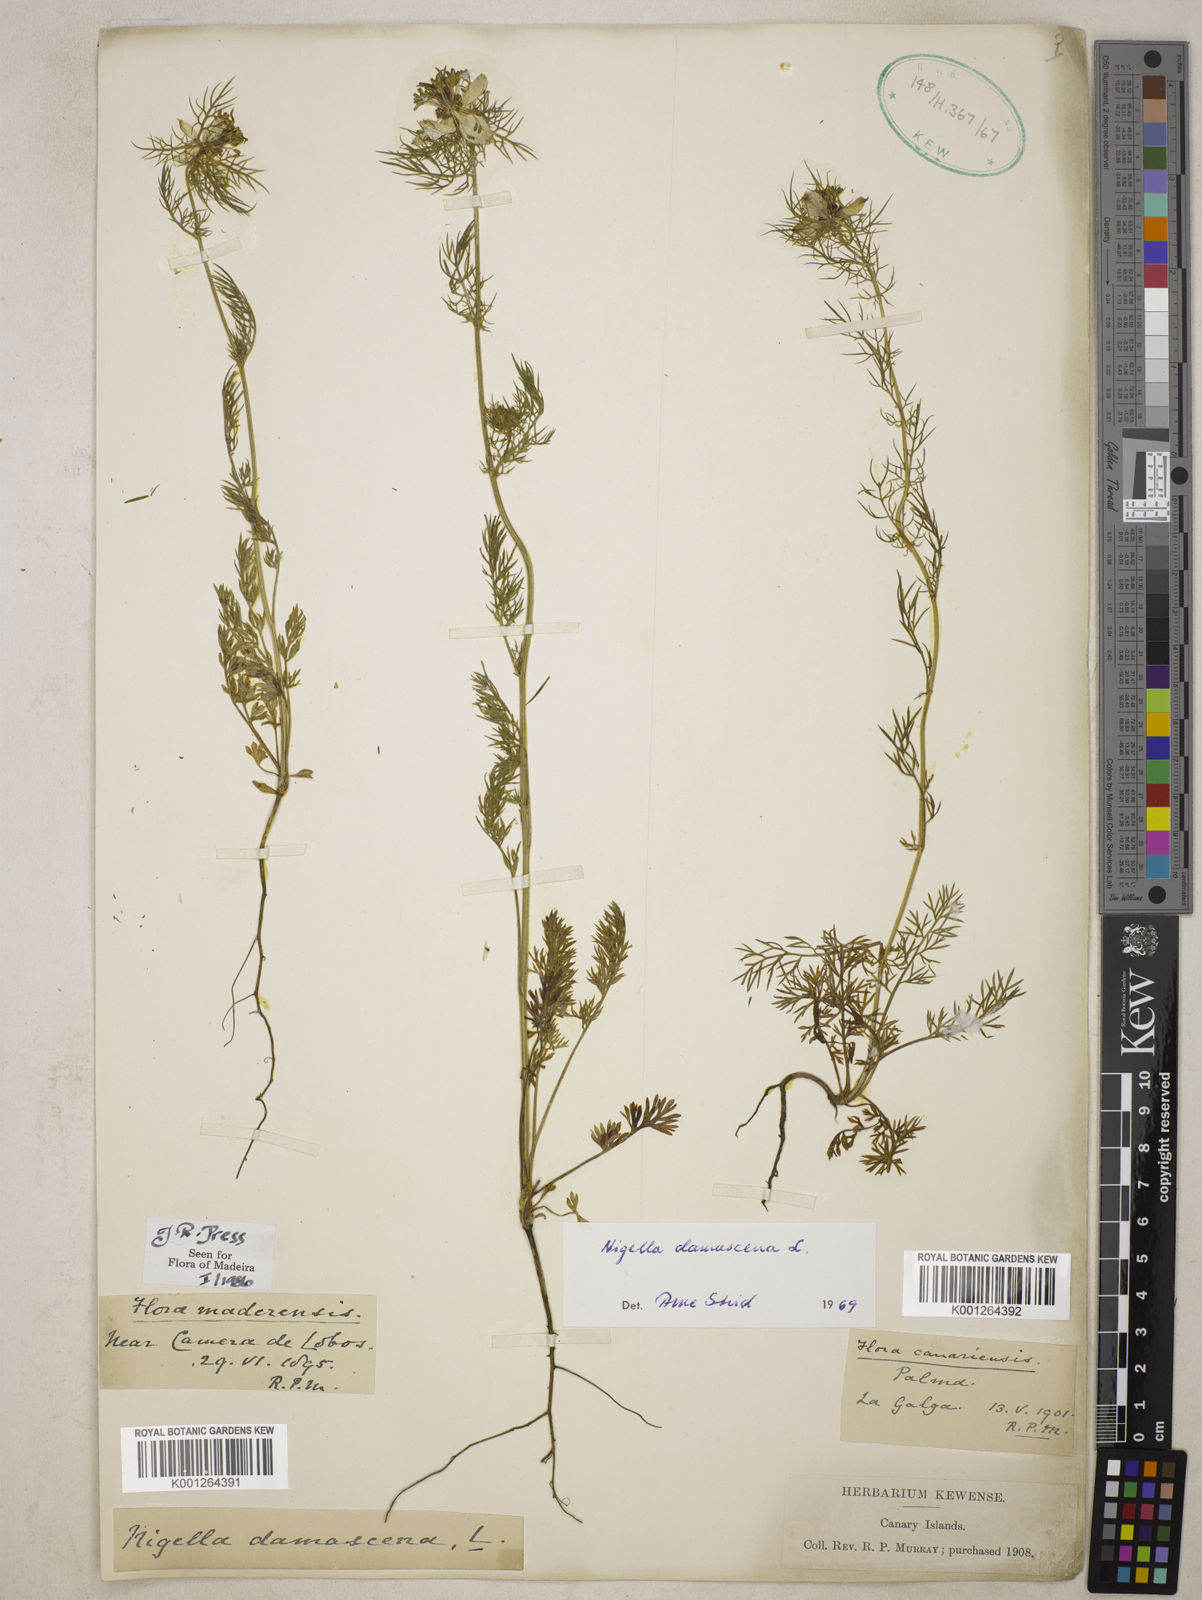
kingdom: Plantae
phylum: Tracheophyta
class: Magnoliopsida
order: Ranunculales
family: Ranunculaceae
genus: Nigella
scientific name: Nigella damascena
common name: Love-in-a-mist
